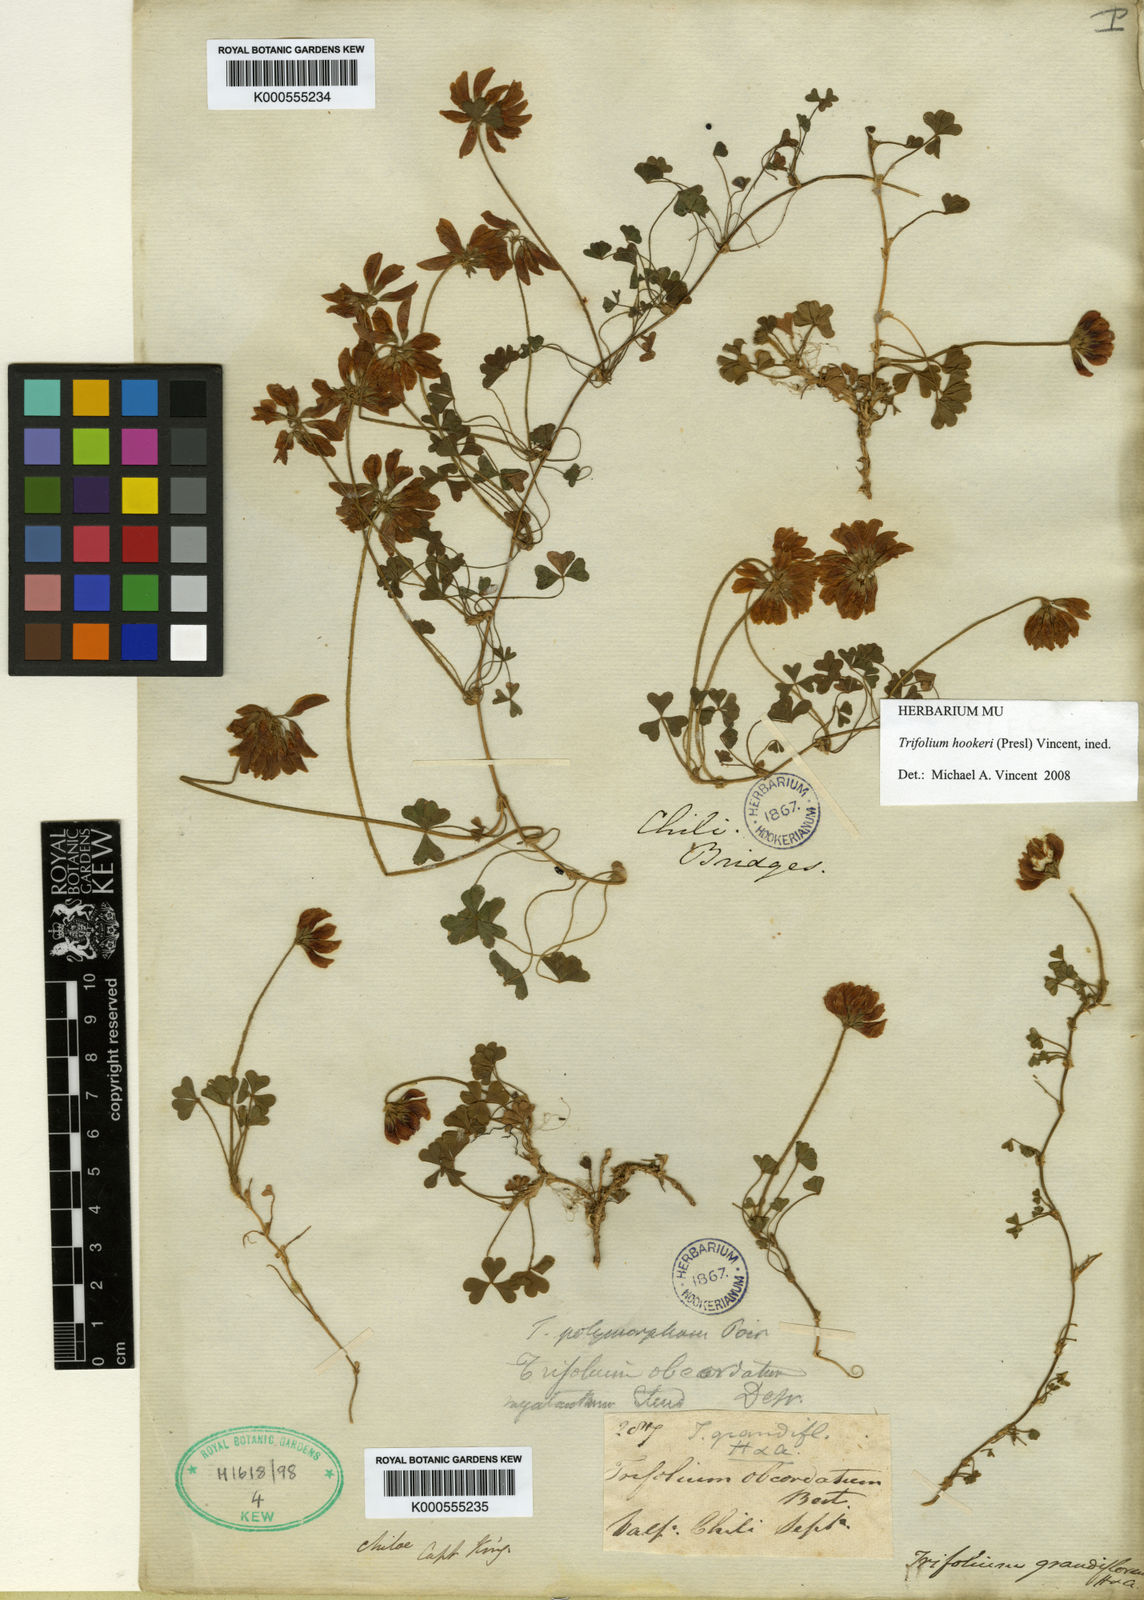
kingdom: Plantae
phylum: Tracheophyta
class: Magnoliopsida
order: Fabales
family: Fabaceae
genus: Trifolium
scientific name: Trifolium
